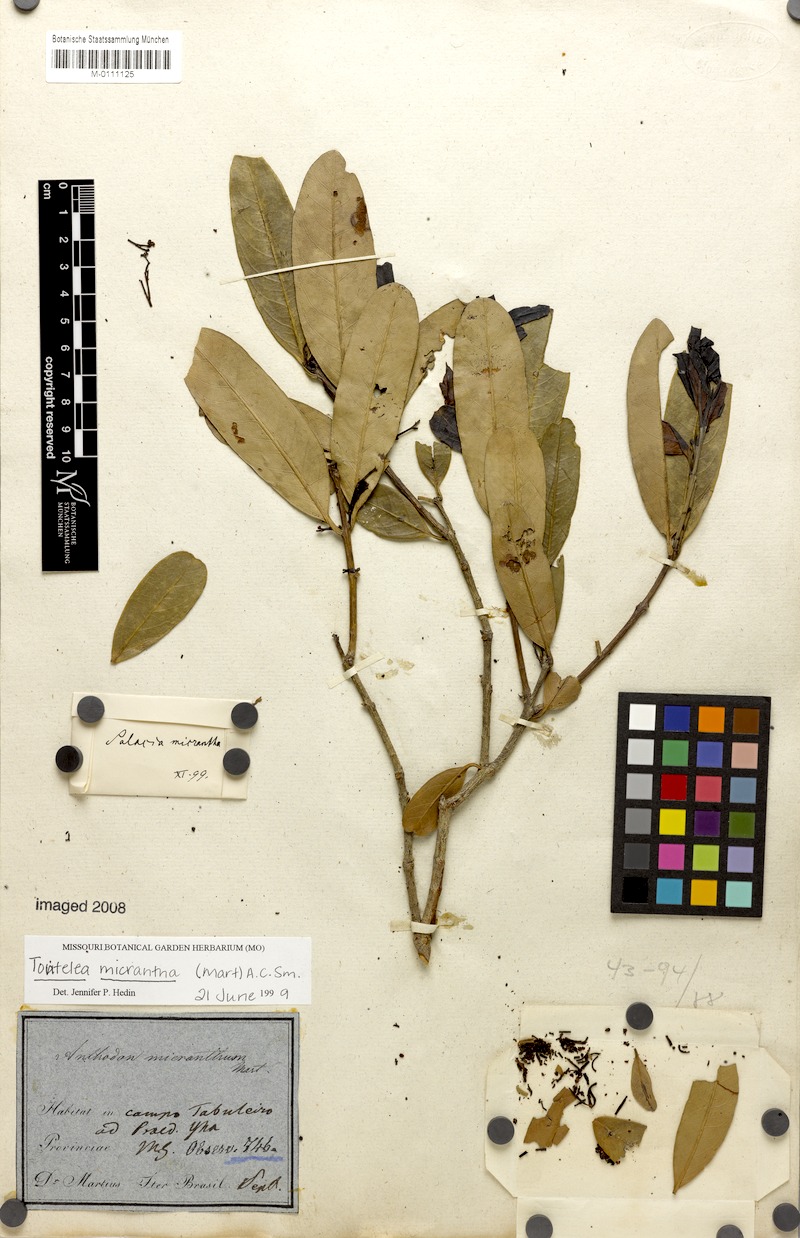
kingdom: Plantae
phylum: Tracheophyta
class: Magnoliopsida
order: Celastrales
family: Celastraceae
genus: Tontelea
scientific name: Tontelea micrantha
